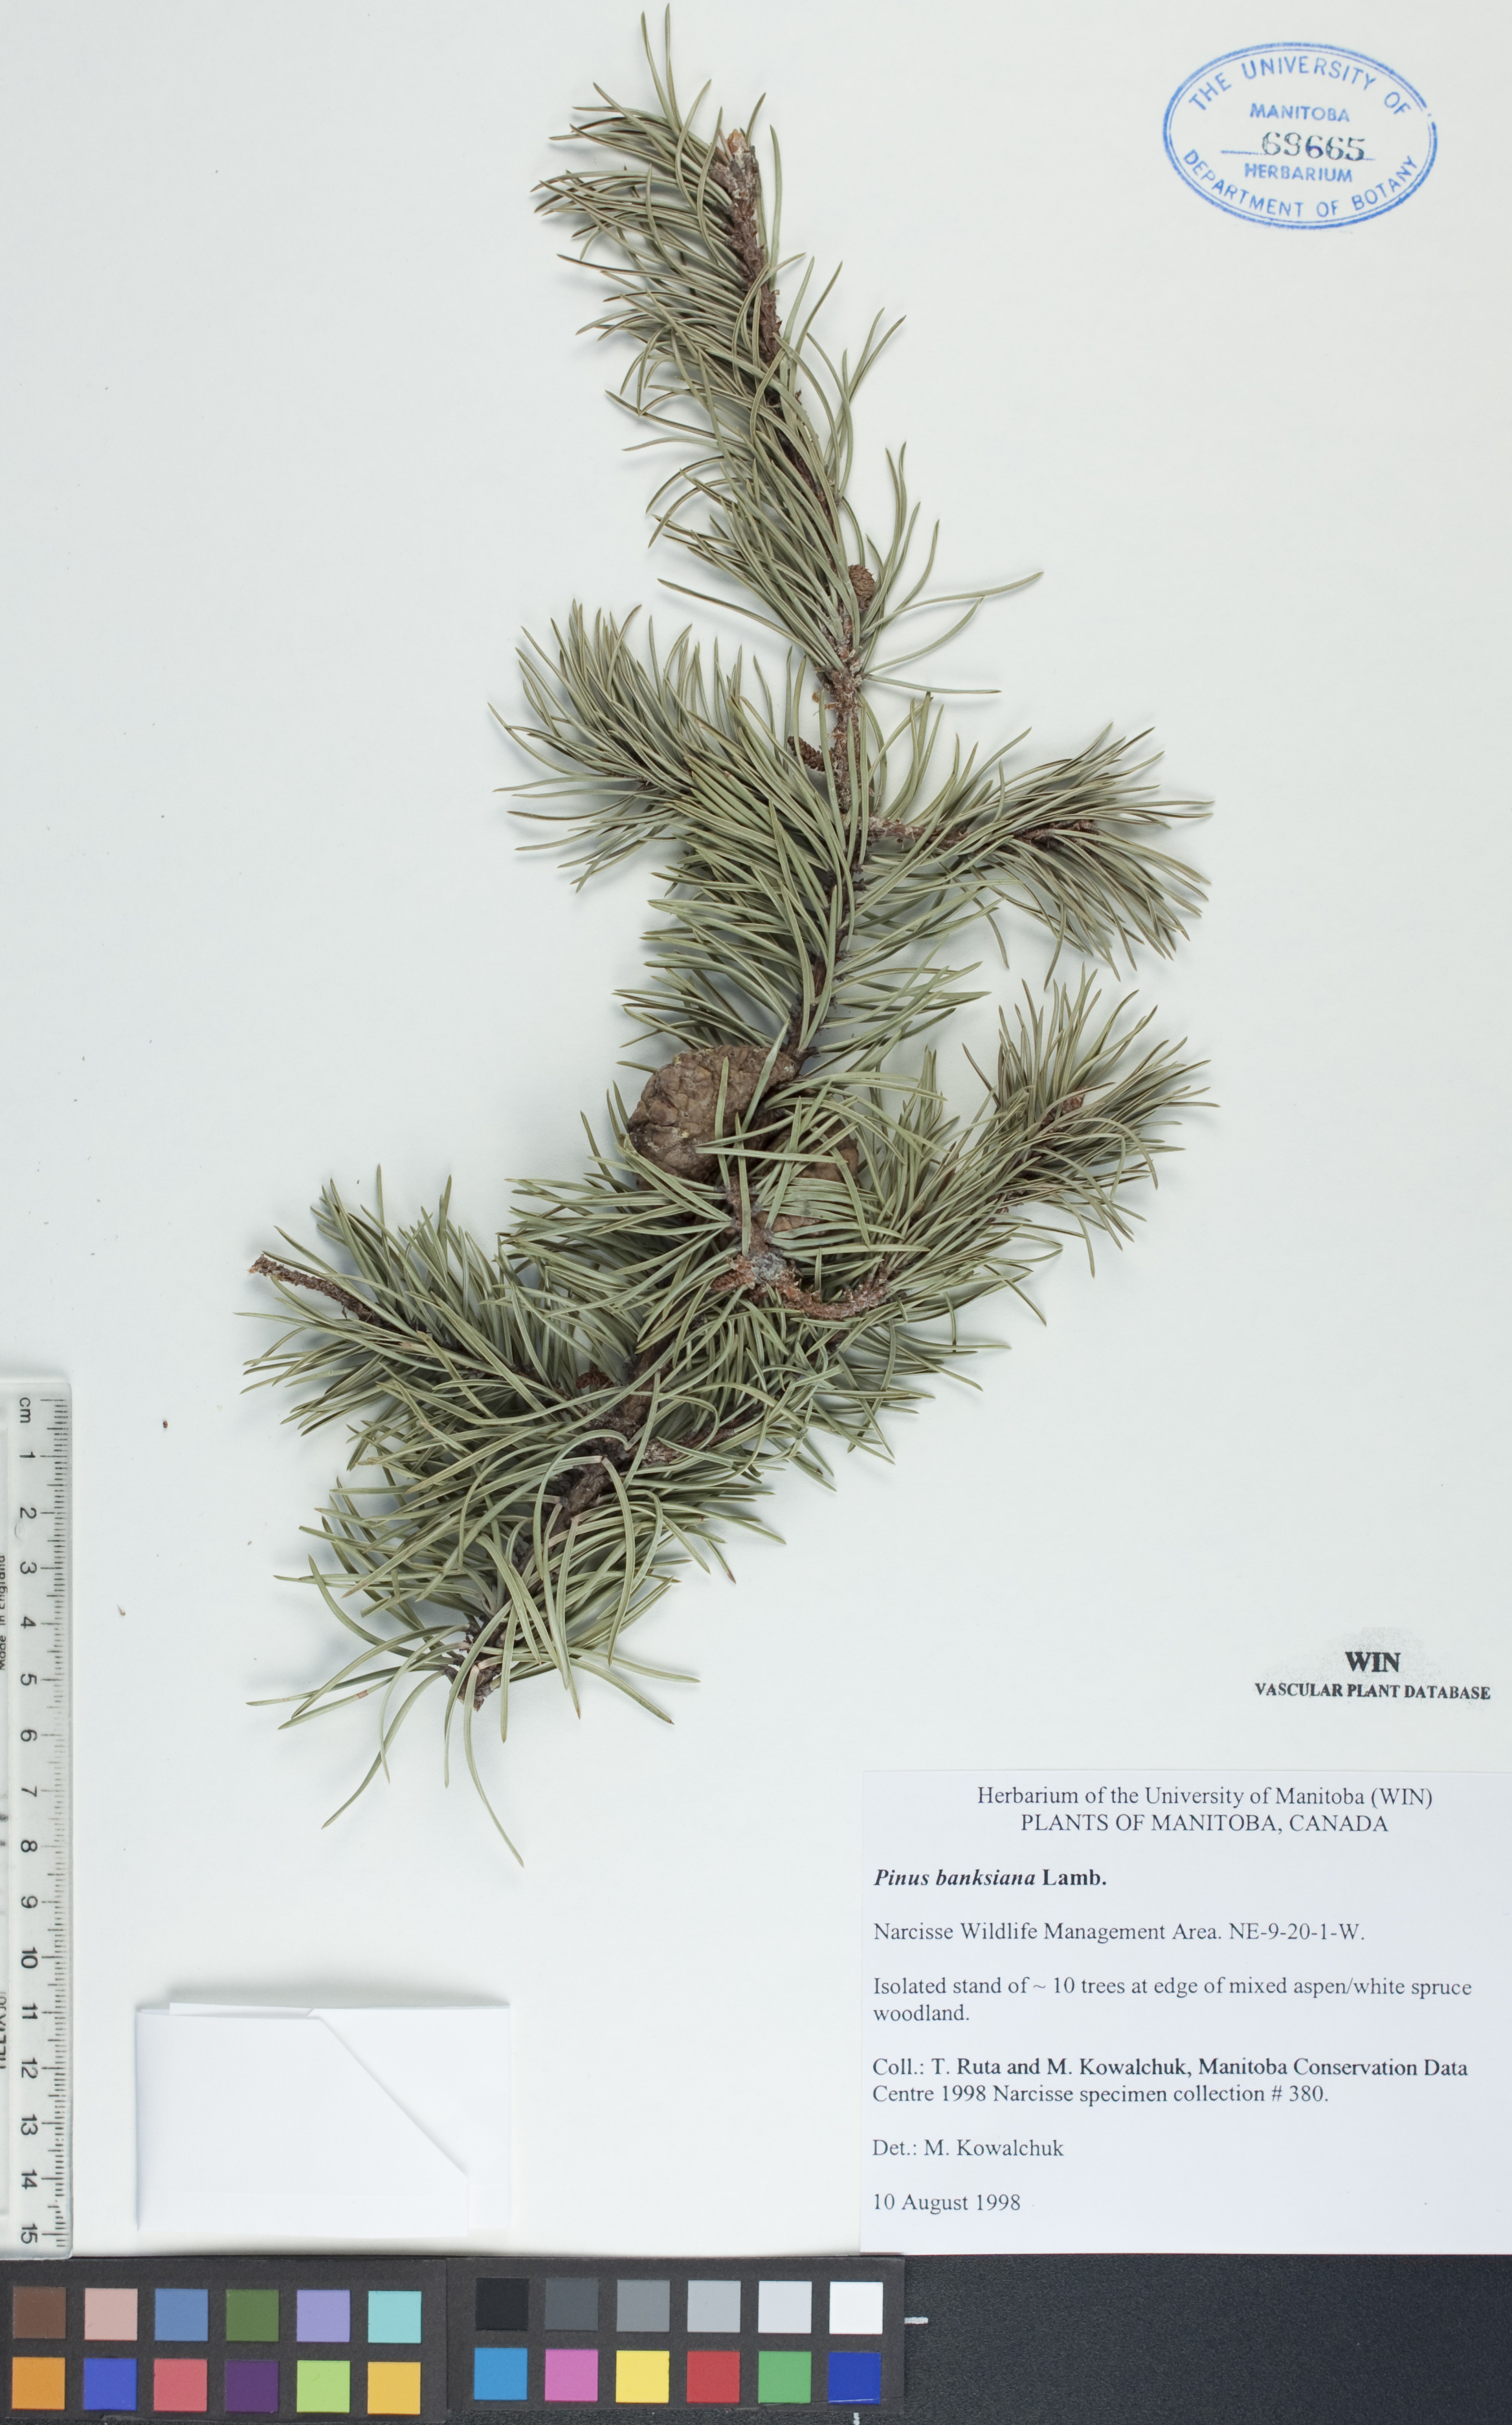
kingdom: Plantae
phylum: Tracheophyta
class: Pinopsida
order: Pinales
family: Pinaceae
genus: Pinus
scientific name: Pinus banksiana
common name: Jack pine
